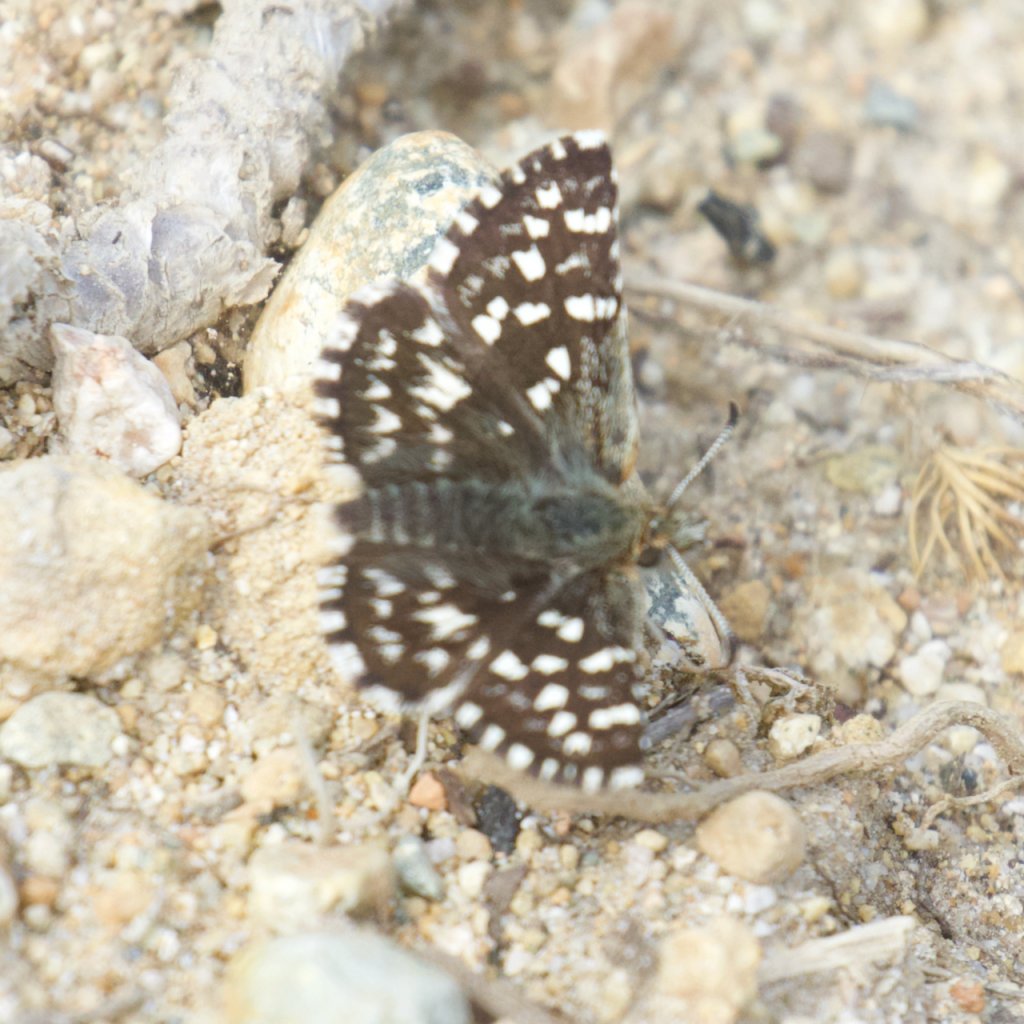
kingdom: Animalia
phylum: Arthropoda
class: Insecta
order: Lepidoptera
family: Hesperiidae
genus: Pyrgus
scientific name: Pyrgus ruralis
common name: Two-banded Checkered-Skipper
